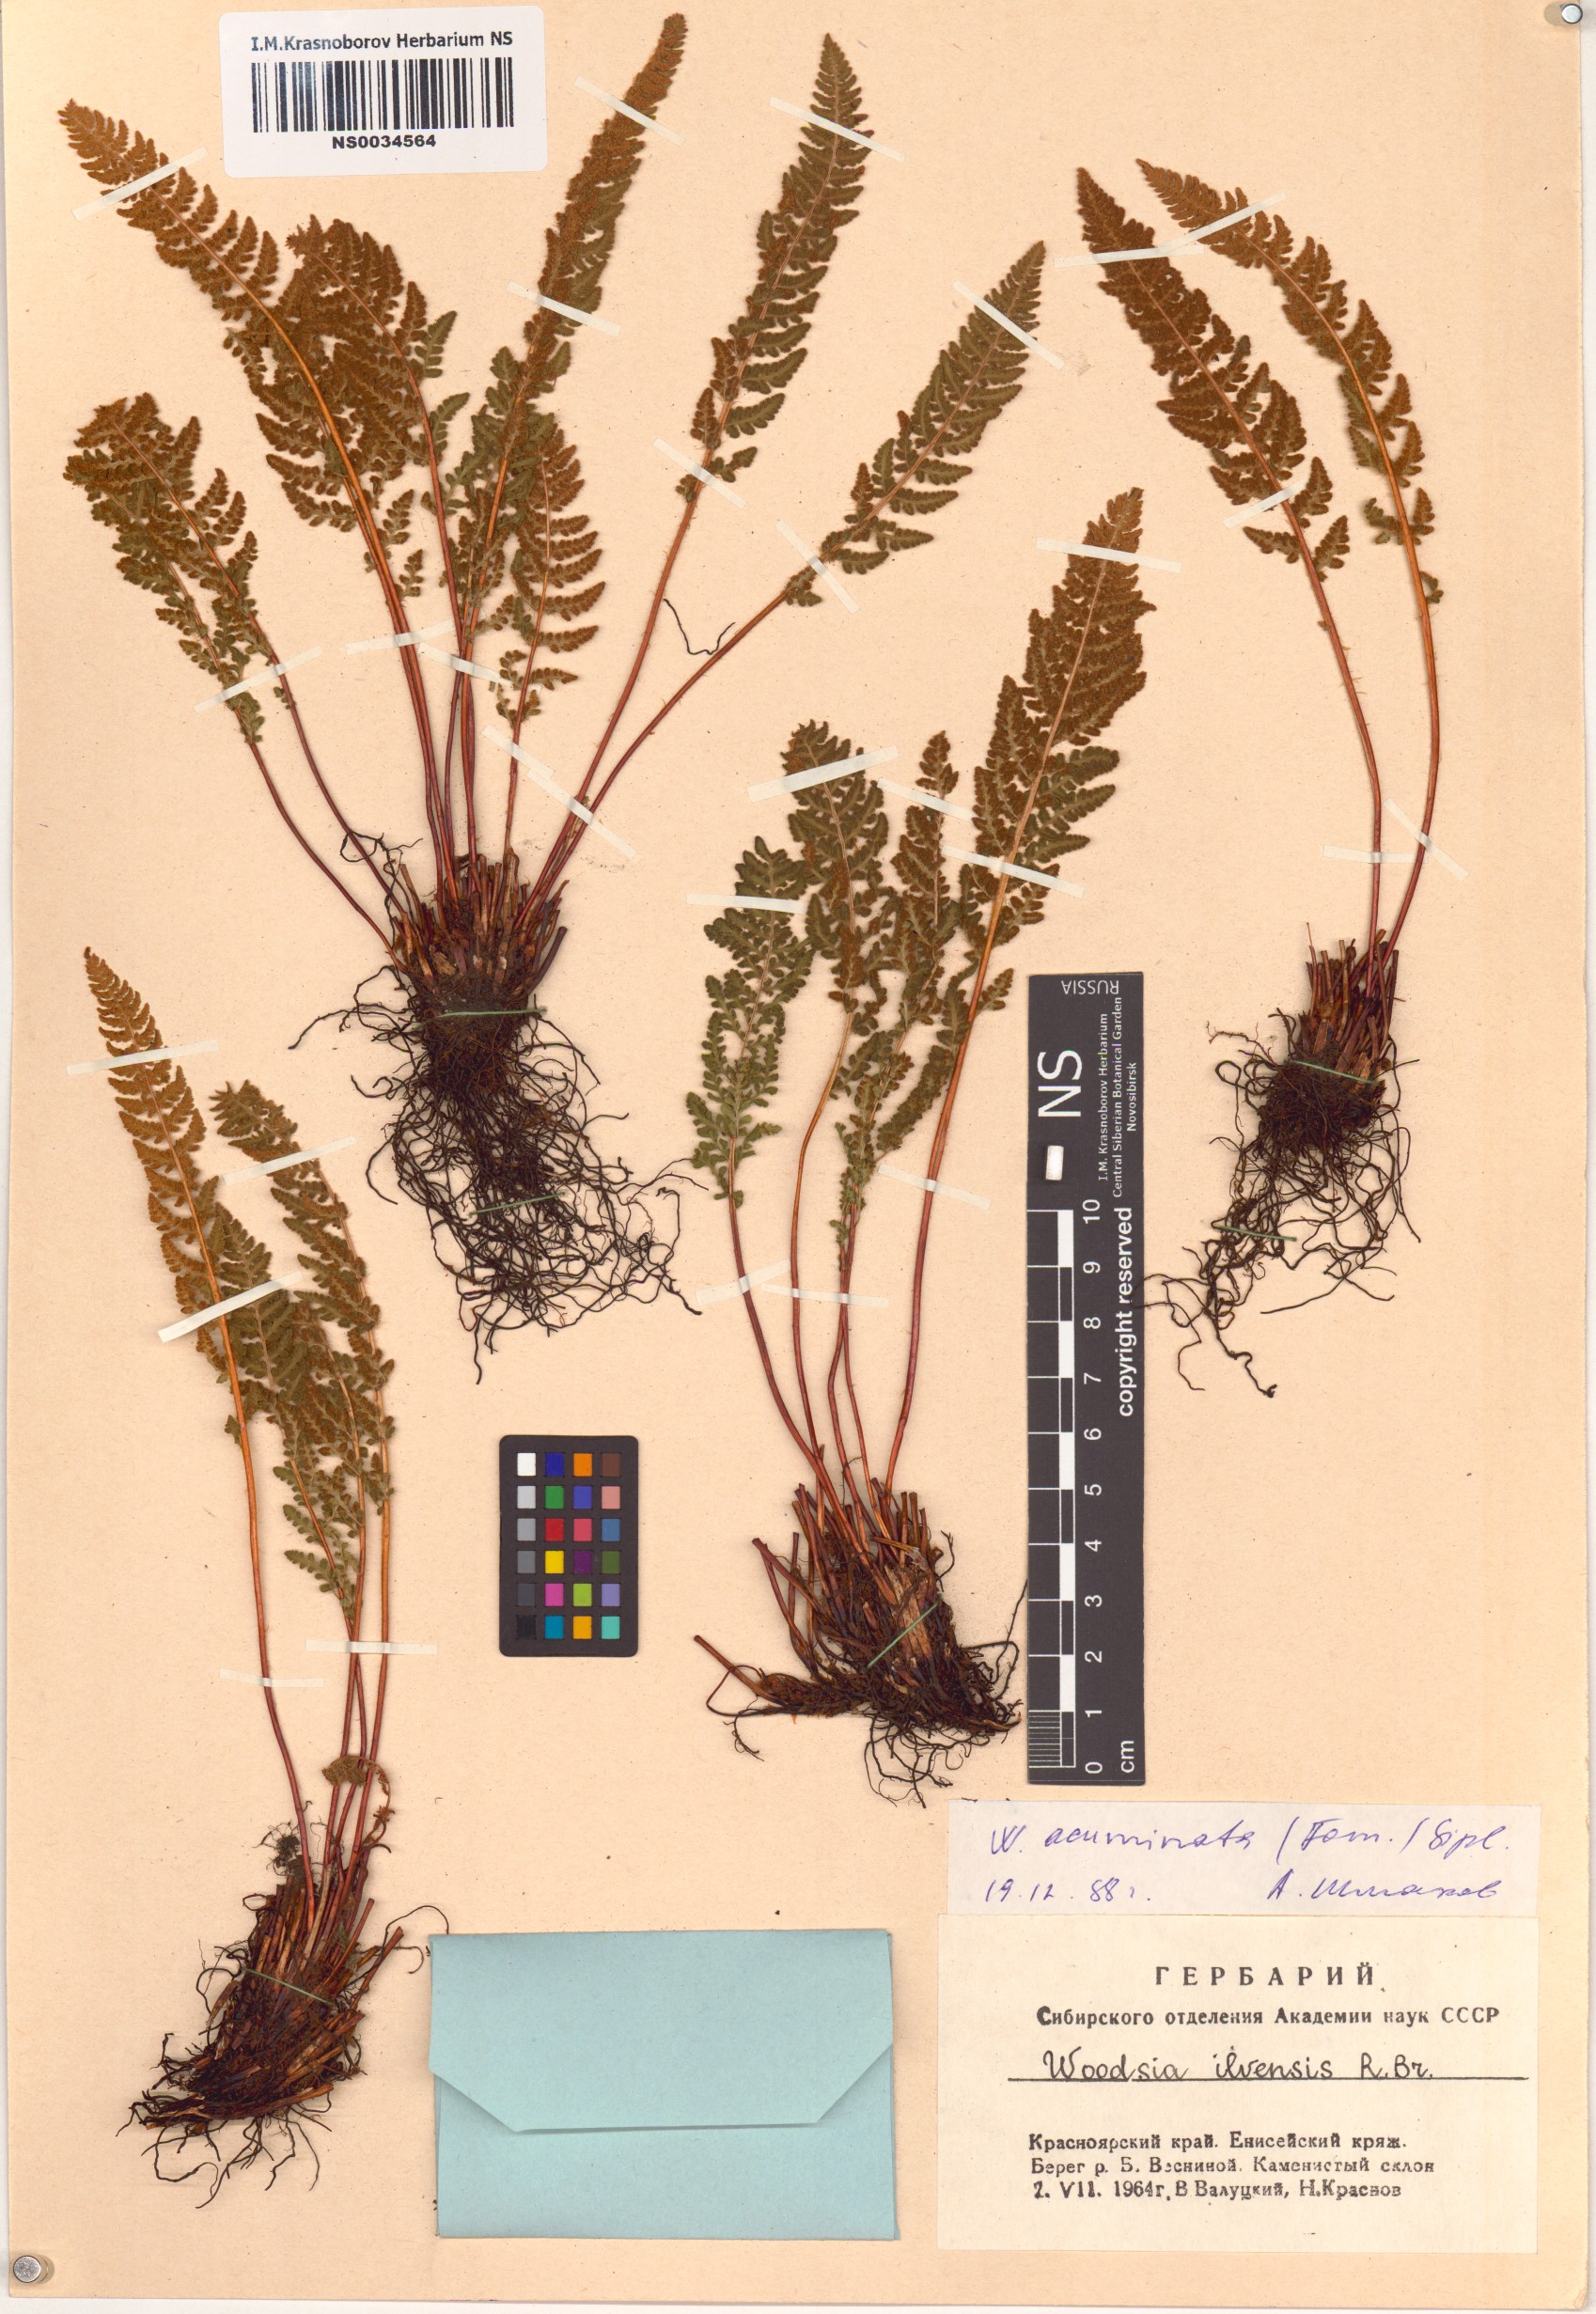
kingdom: Plantae
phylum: Tracheophyta
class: Polypodiopsida
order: Polypodiales
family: Woodsiaceae
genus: Woodsia
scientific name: Woodsia ilvensis
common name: Fragrant woodsia
